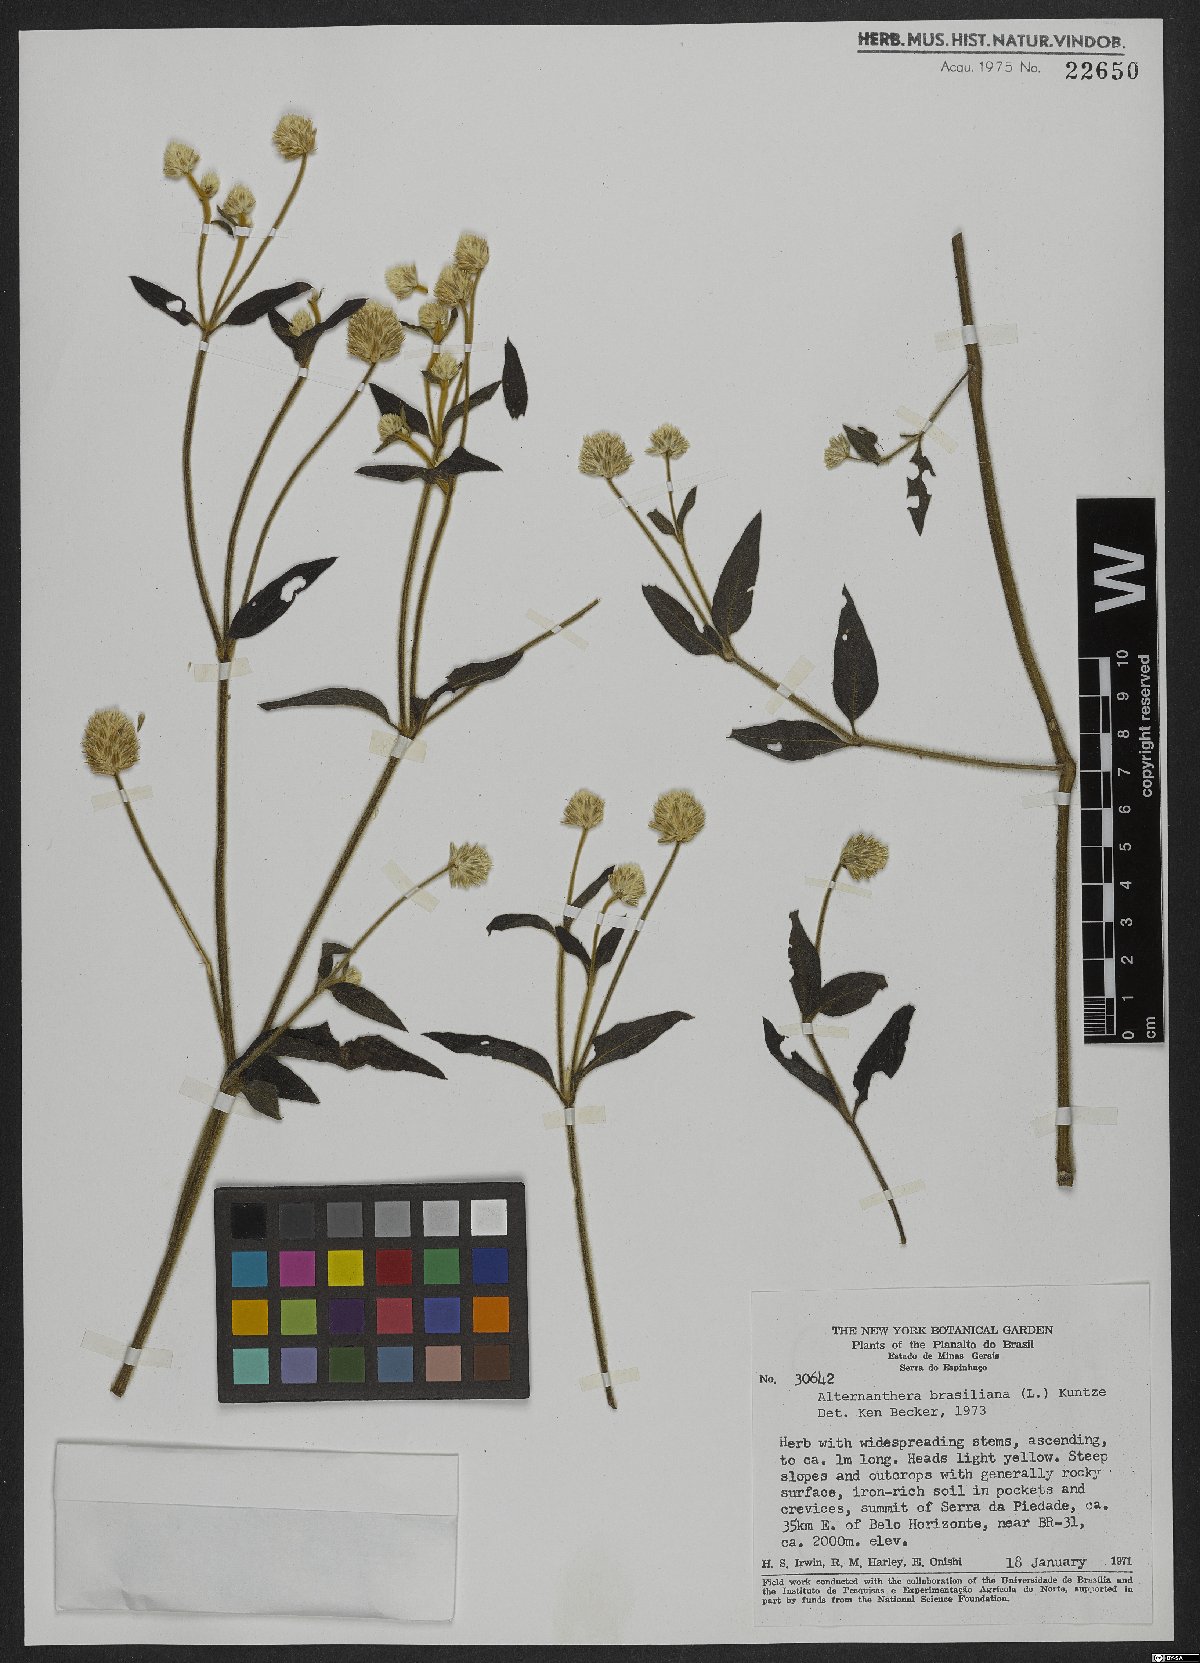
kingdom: Plantae
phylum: Tracheophyta
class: Magnoliopsida
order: Caryophyllales
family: Amaranthaceae
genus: Alternanthera
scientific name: Alternanthera brasiliana
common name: Brazilian joyweed
